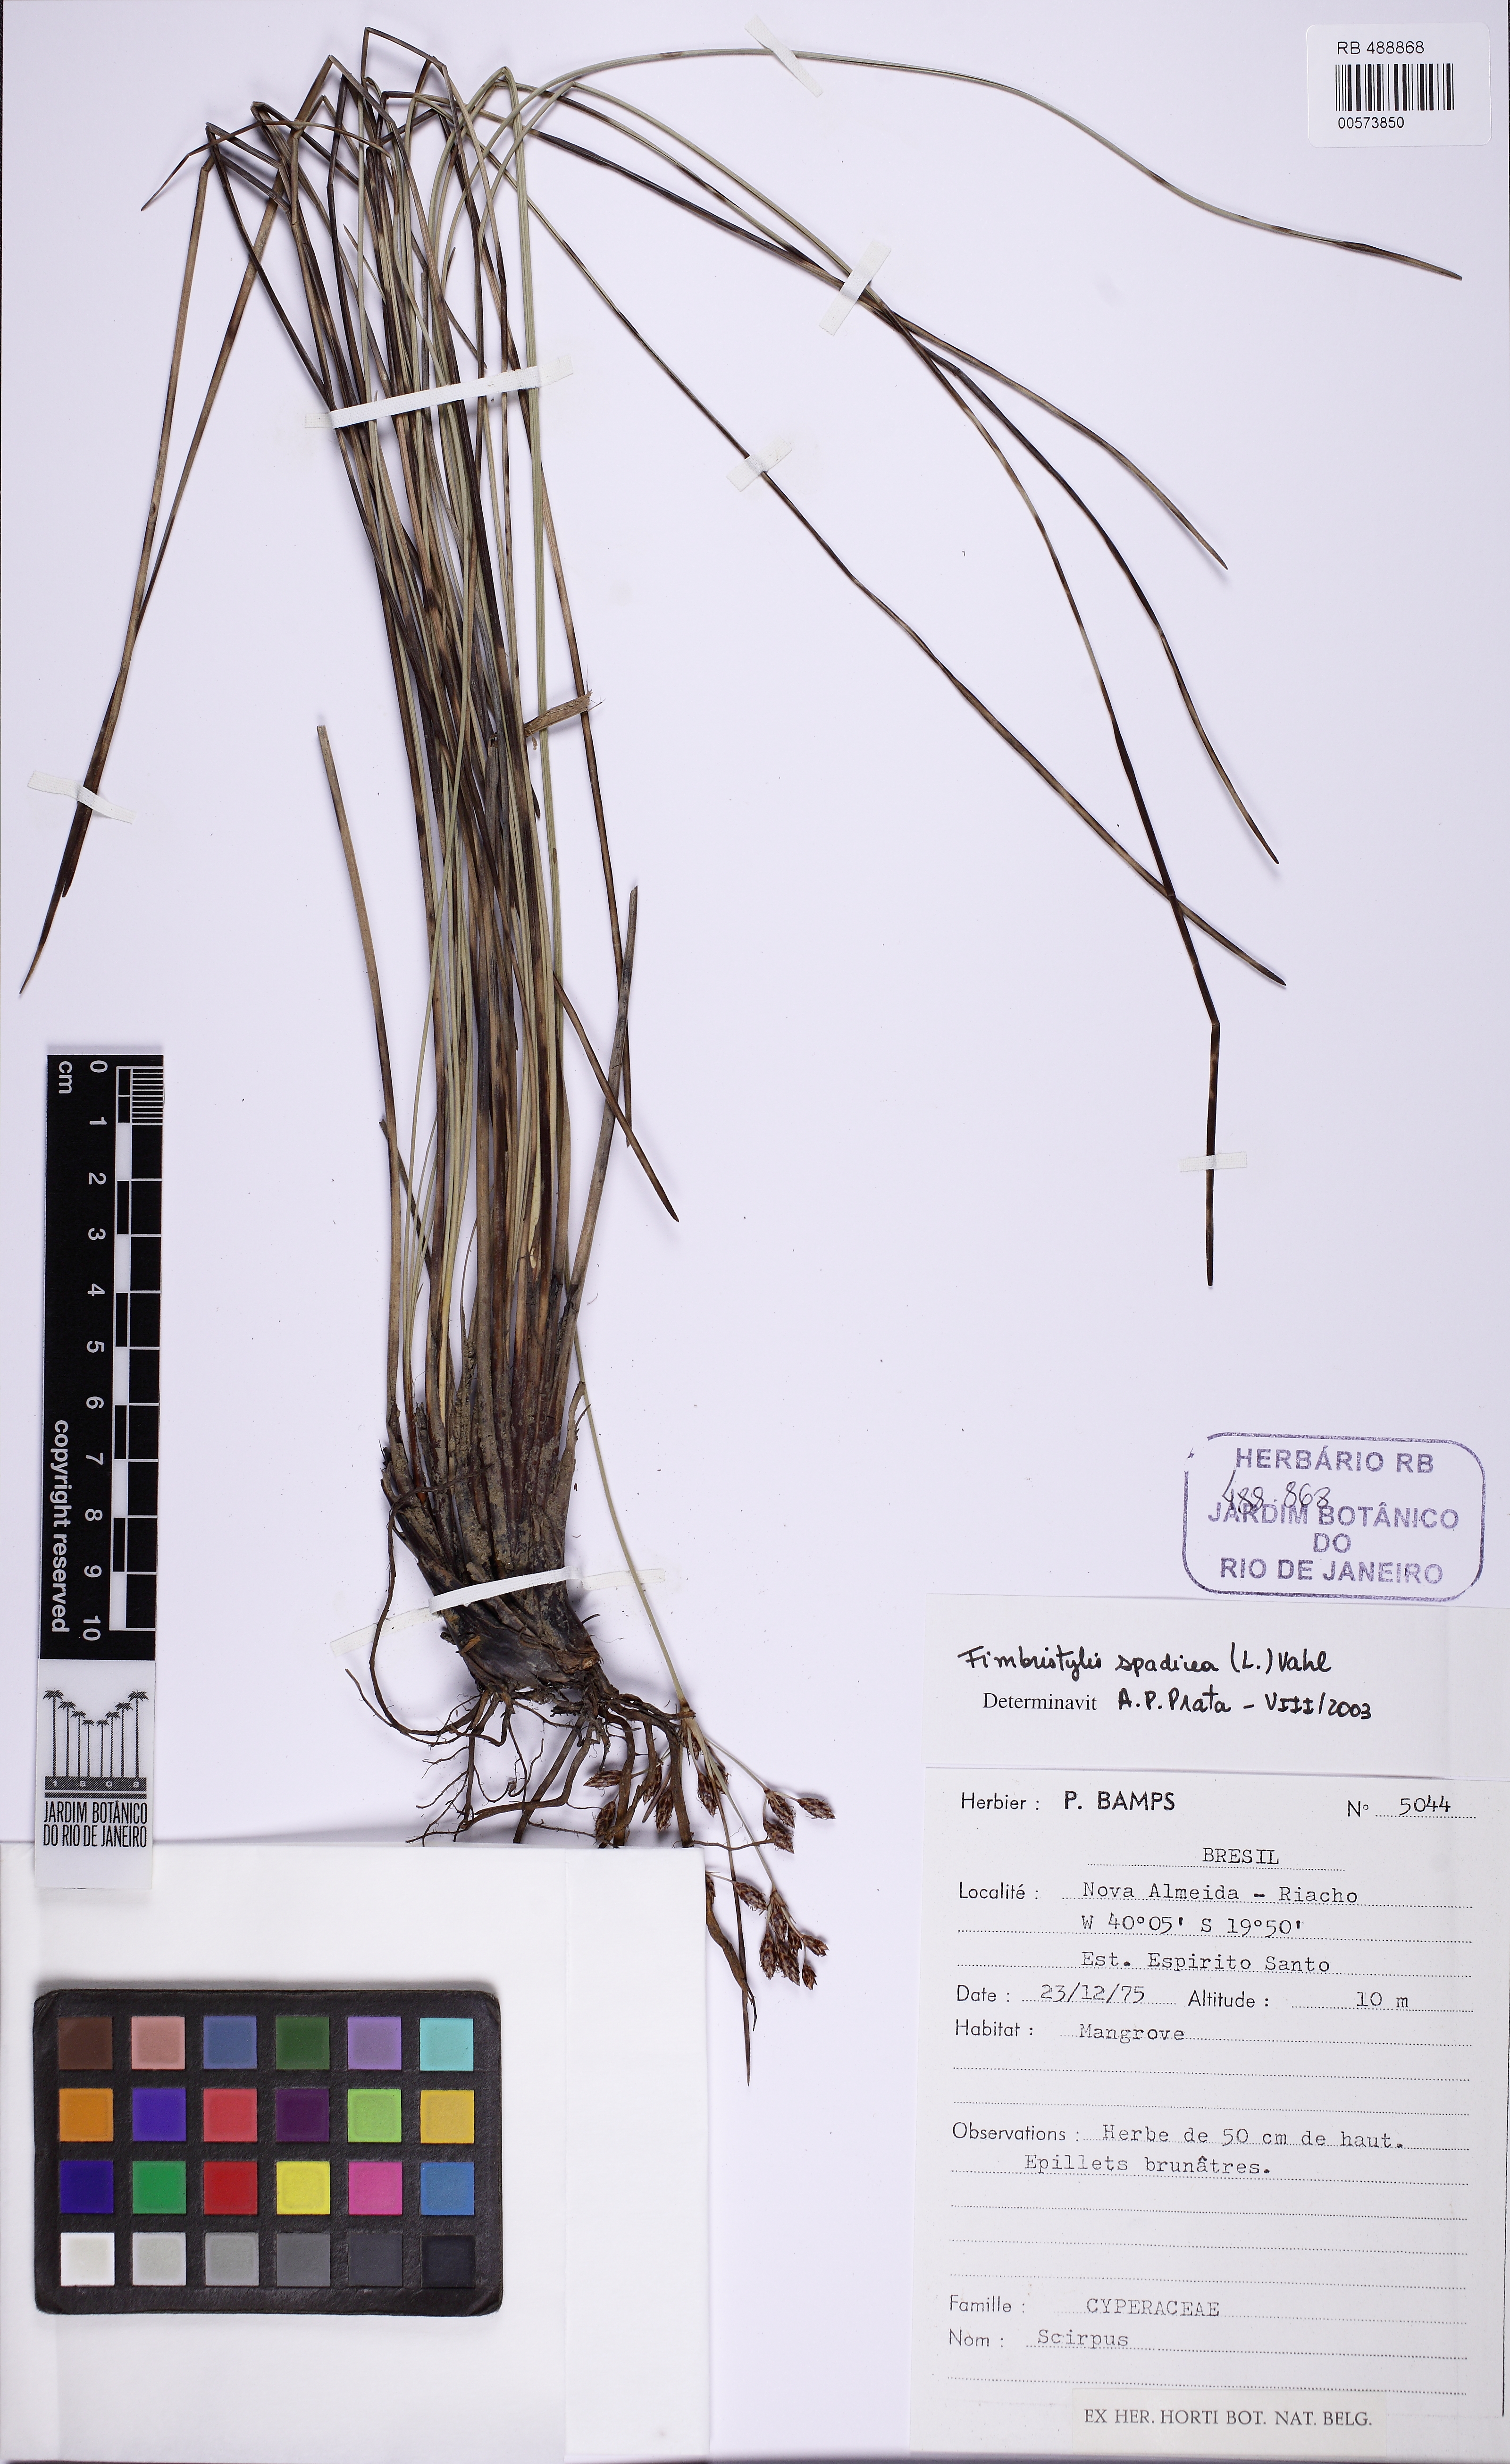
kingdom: Plantae
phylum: Tracheophyta
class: Liliopsida
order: Poales
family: Cyperaceae
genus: Fimbristylis
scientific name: Fimbristylis spadicea
